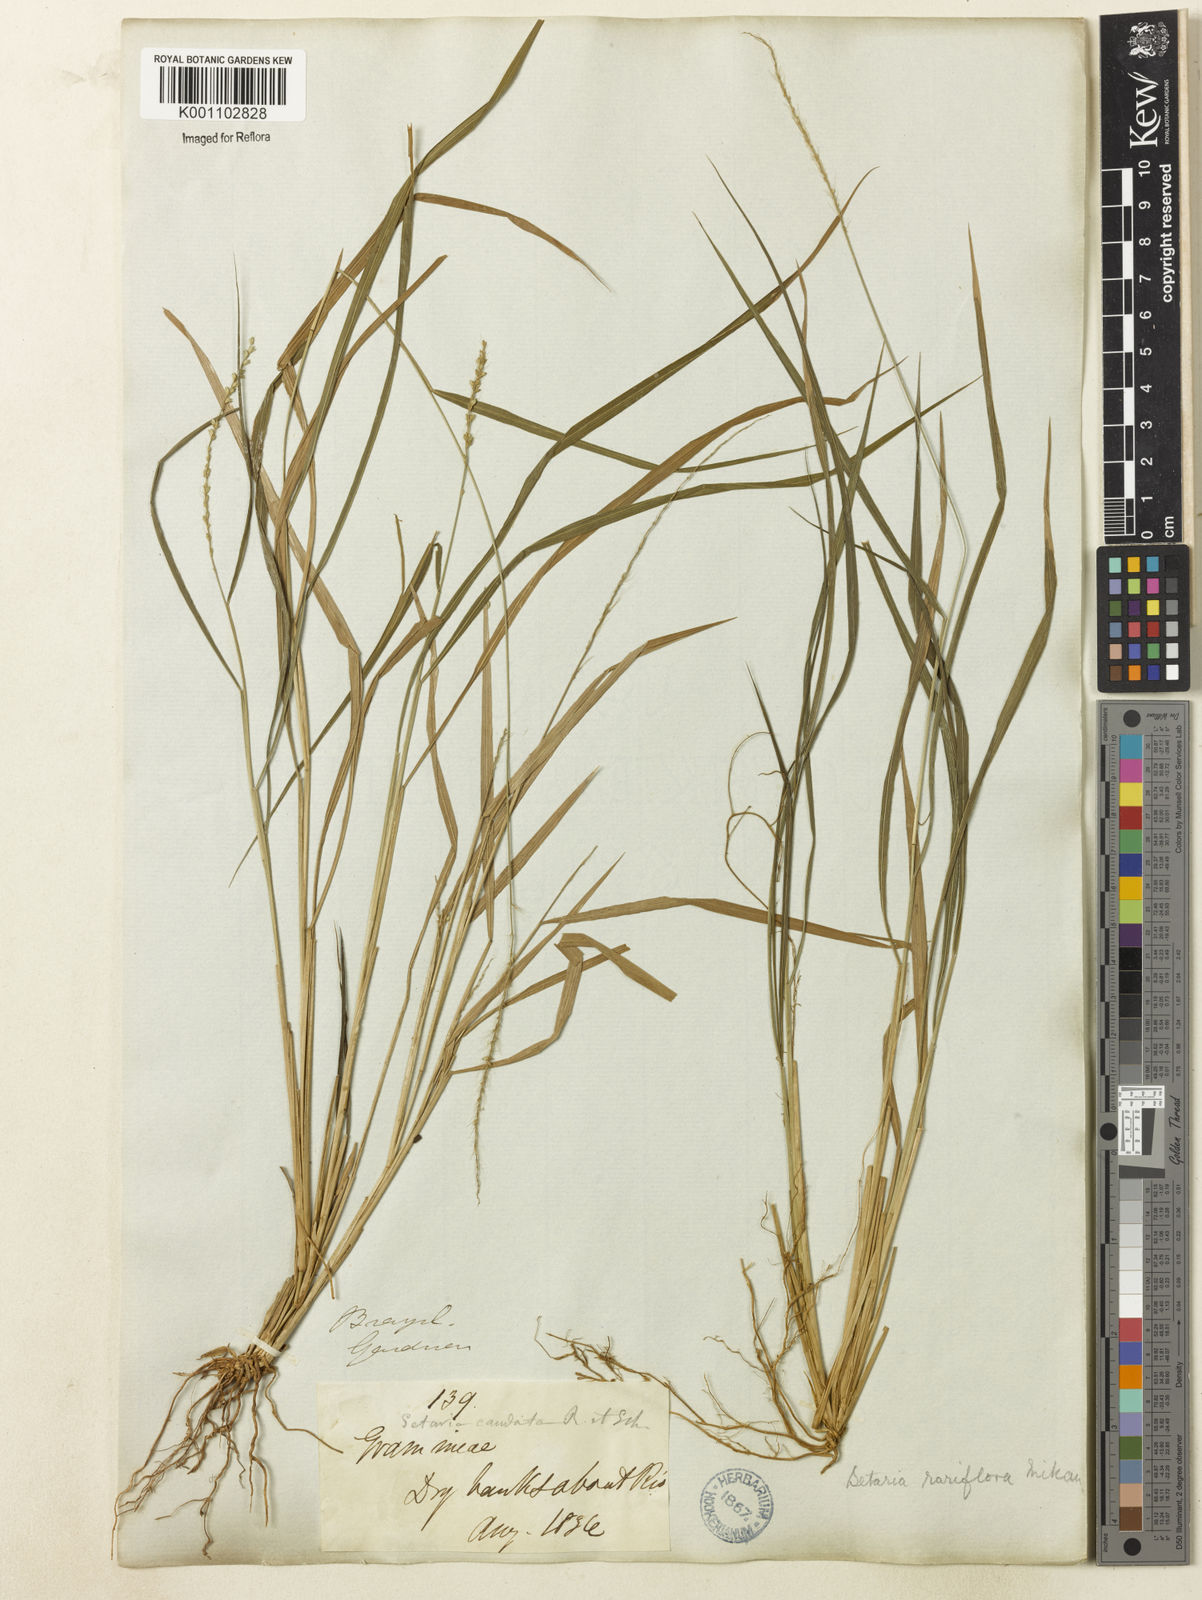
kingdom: Plantae
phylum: Tracheophyta
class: Liliopsida
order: Poales
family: Poaceae
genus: Setaria
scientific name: Setaria setosa
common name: West indies bristle grass
